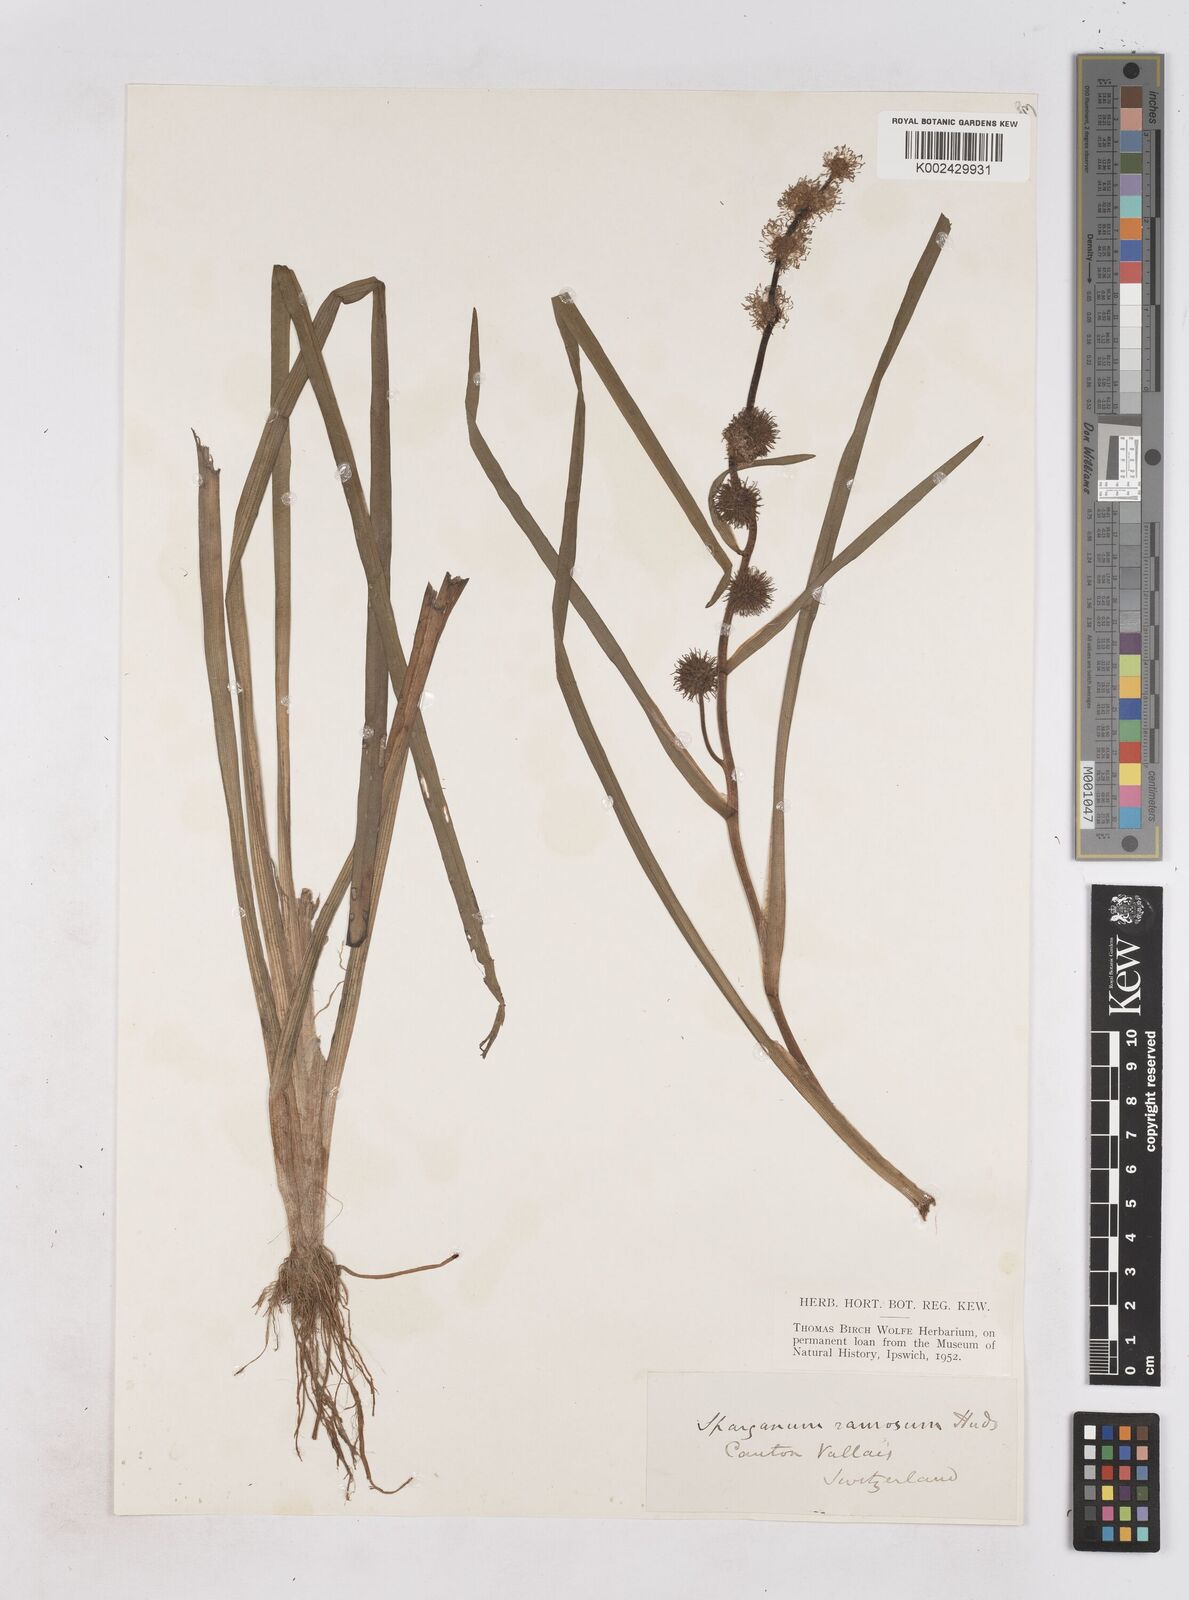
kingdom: Plantae
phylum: Tracheophyta
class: Liliopsida
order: Poales
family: Typhaceae
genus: Sparganium
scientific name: Sparganium erectum
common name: Branched bur-reed
